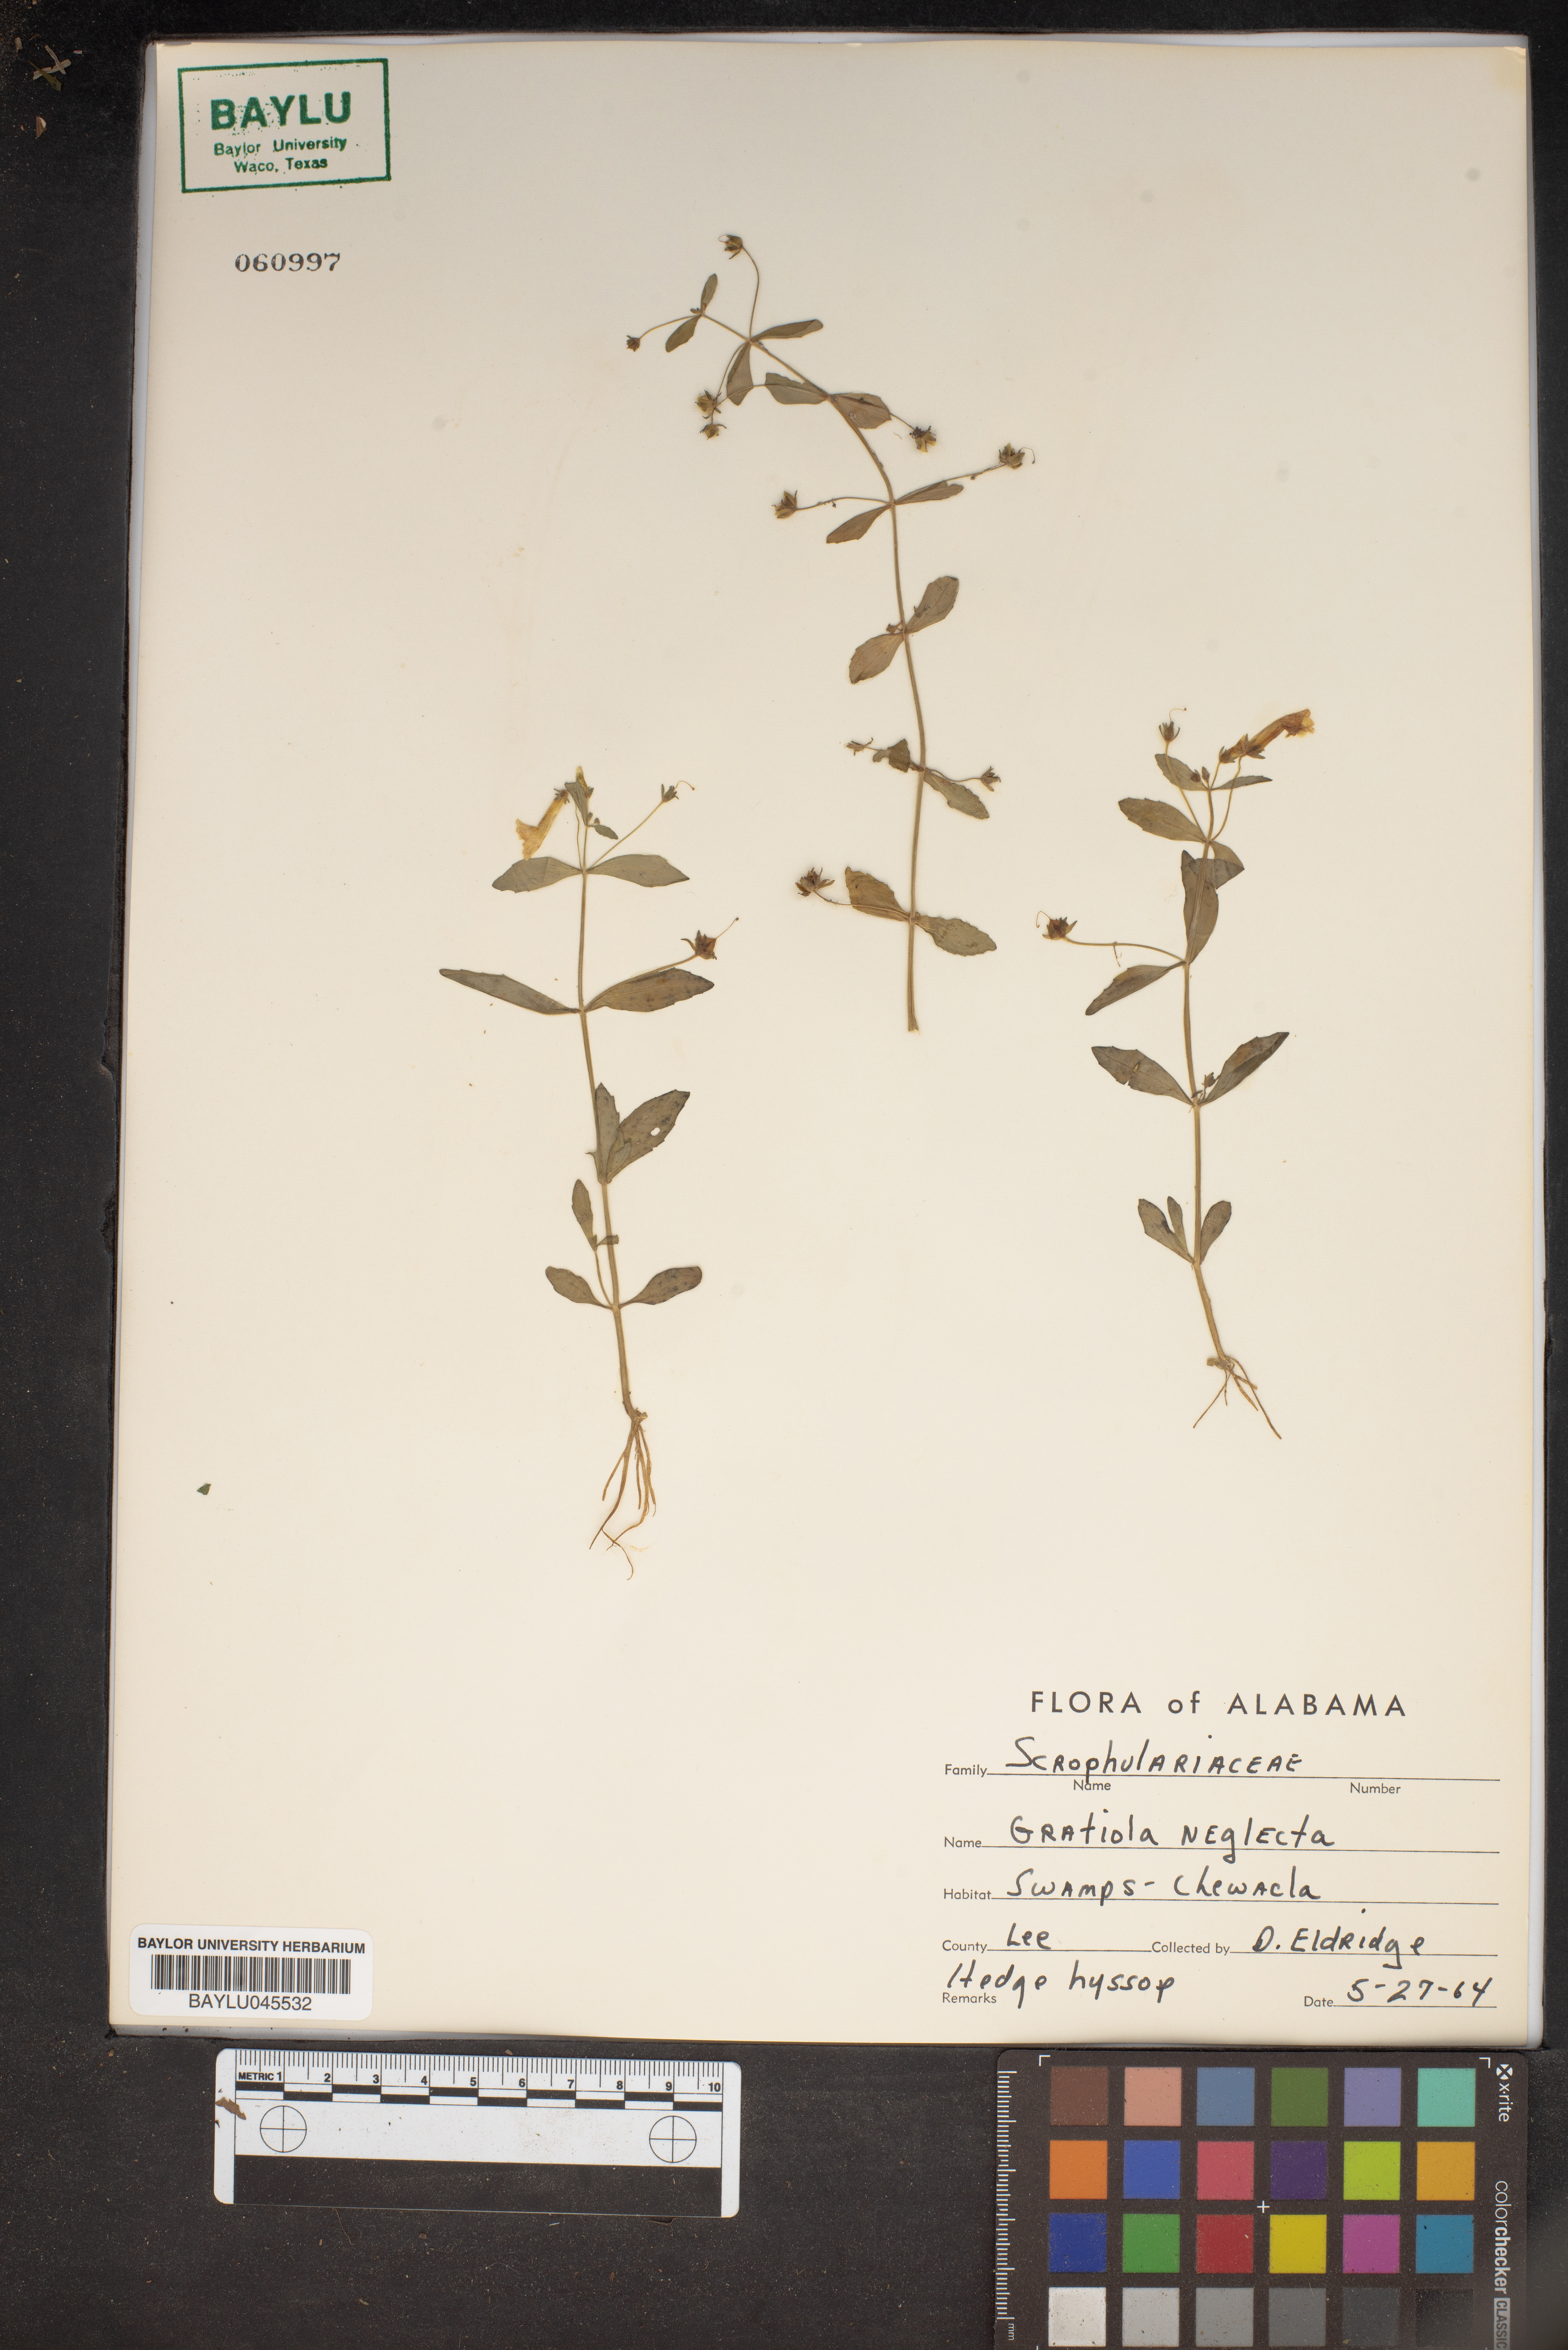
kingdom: Plantae
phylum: Tracheophyta
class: Magnoliopsida
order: Lamiales
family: Plantaginaceae
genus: Gratiola
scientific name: Gratiola neglecta
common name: American hedge-hyssop
